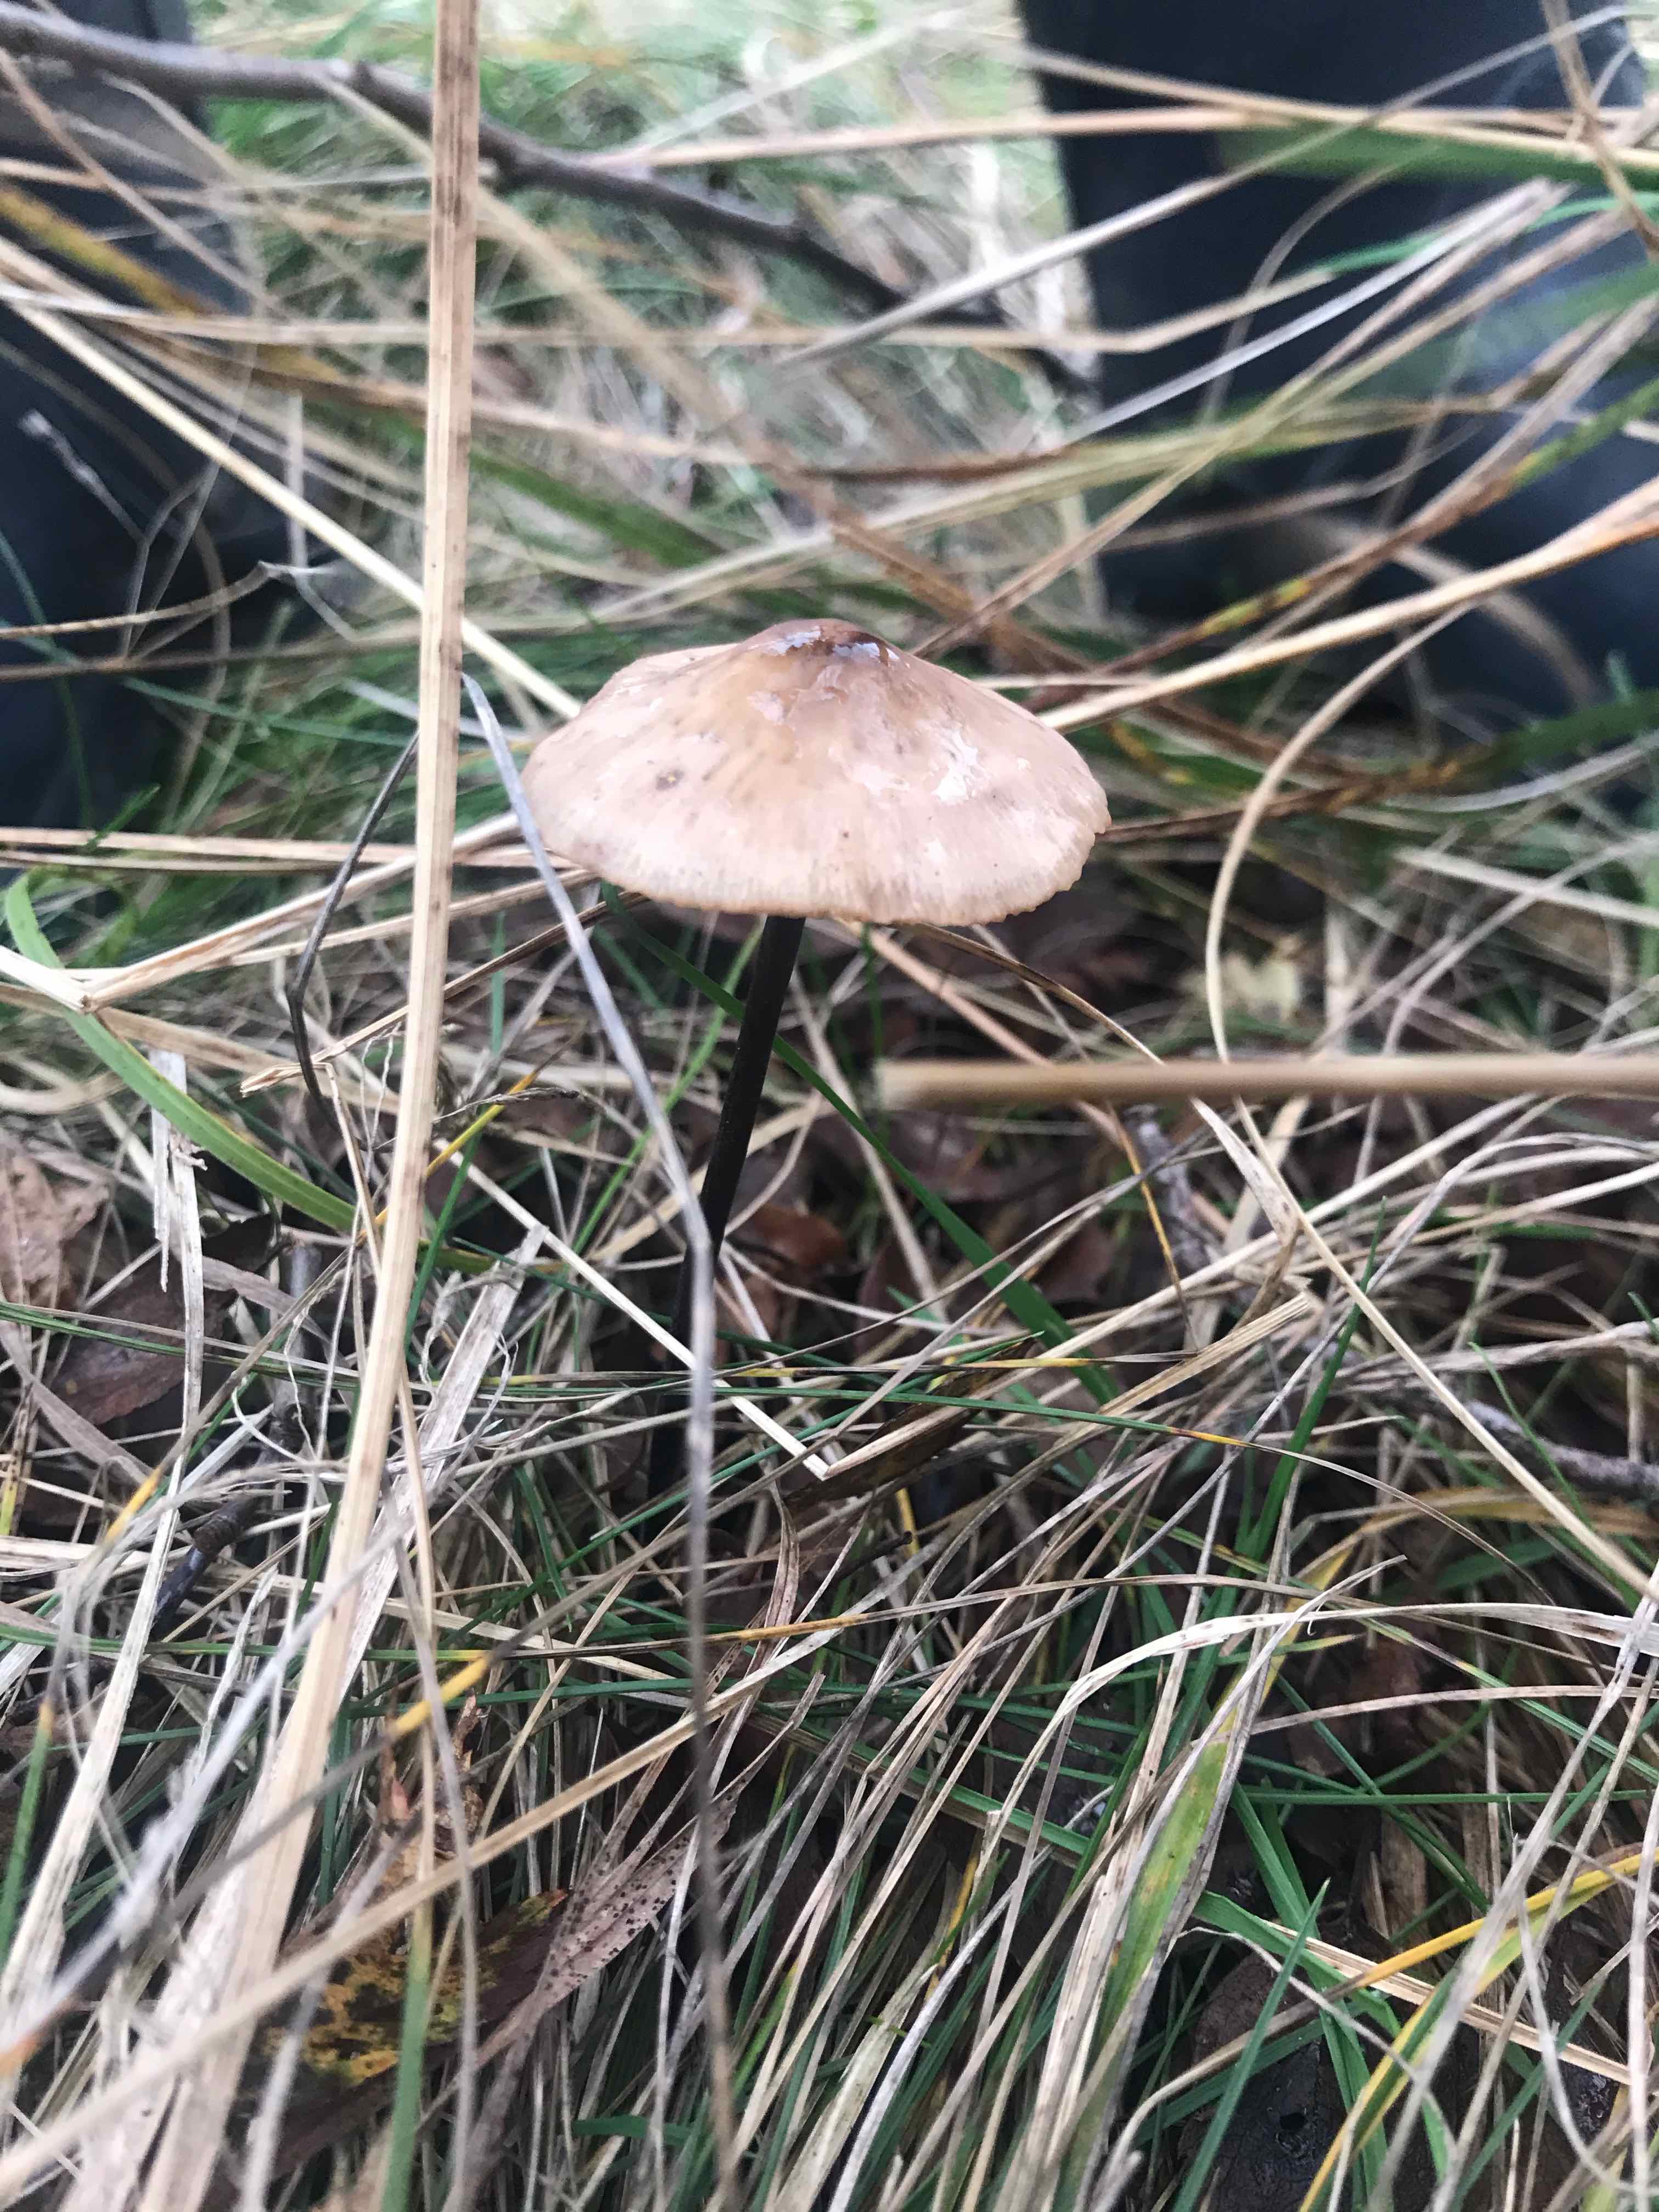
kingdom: Fungi
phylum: Basidiomycota
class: Agaricomycetes
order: Agaricales
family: Omphalotaceae
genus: Mycetinis
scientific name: Mycetinis alliaceus
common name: stor løghat
